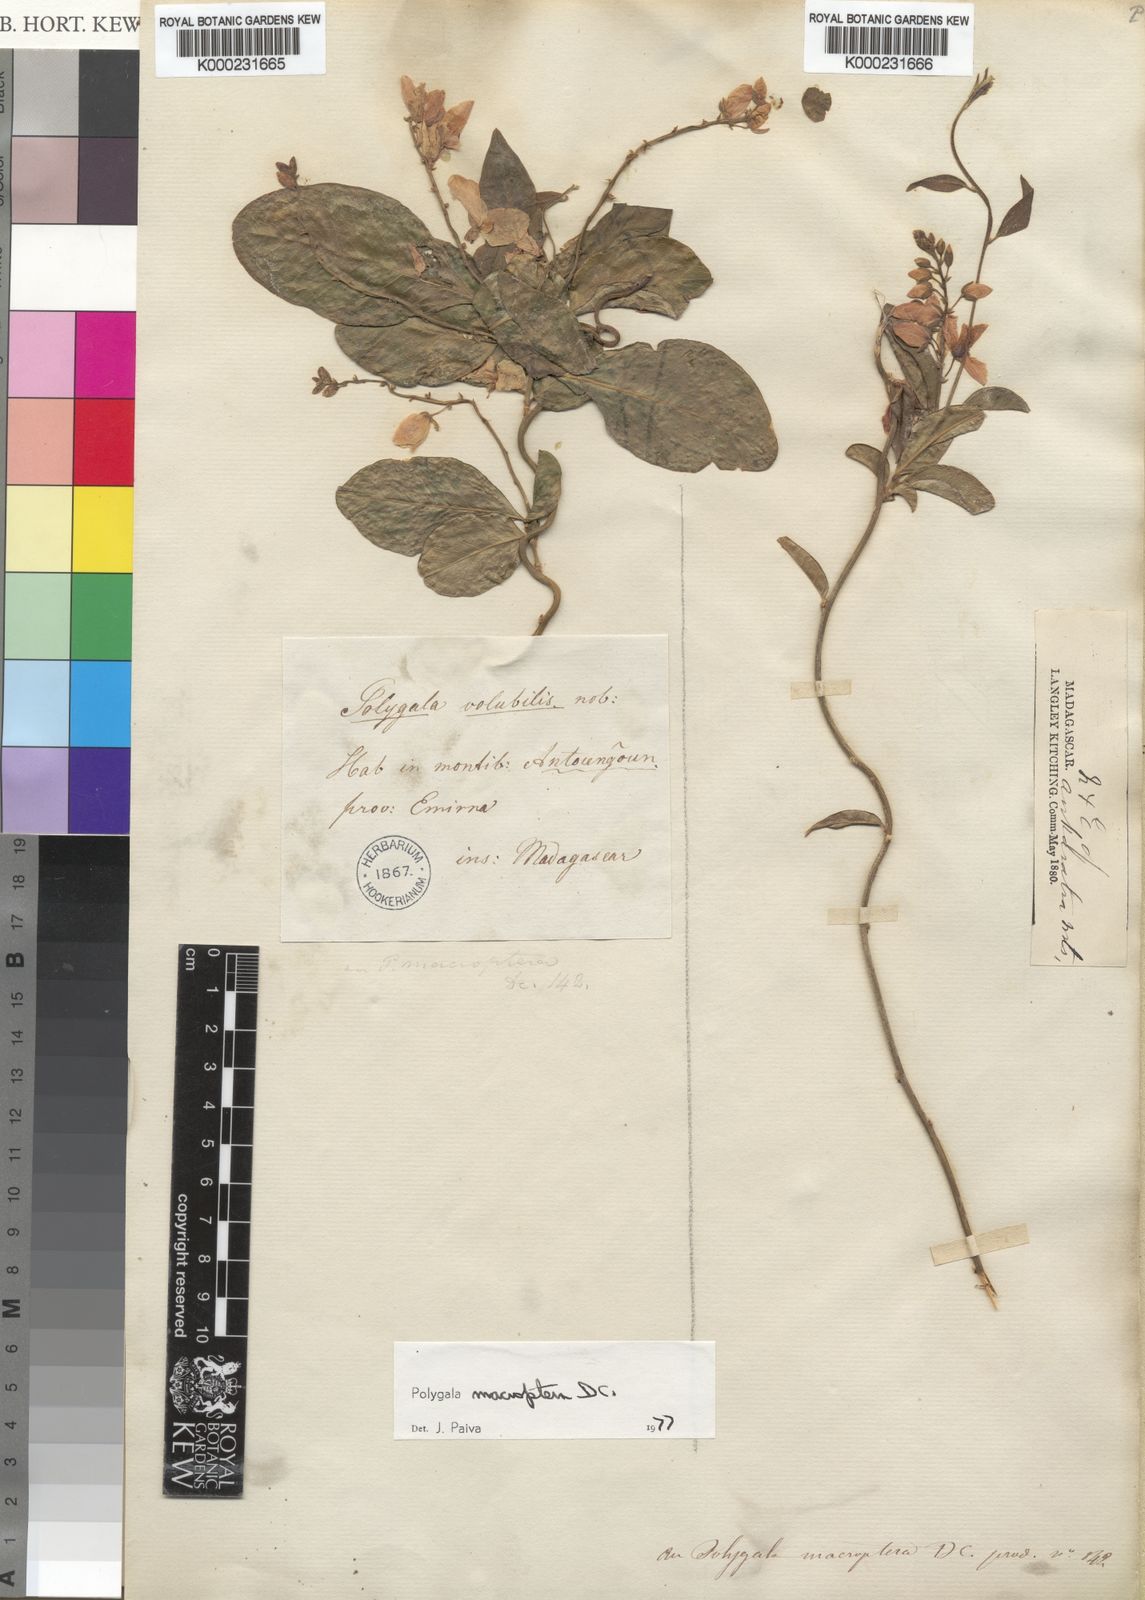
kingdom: Plantae
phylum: Tracheophyta
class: Magnoliopsida
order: Fabales
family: Polygalaceae
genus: Polygala
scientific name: Polygala
